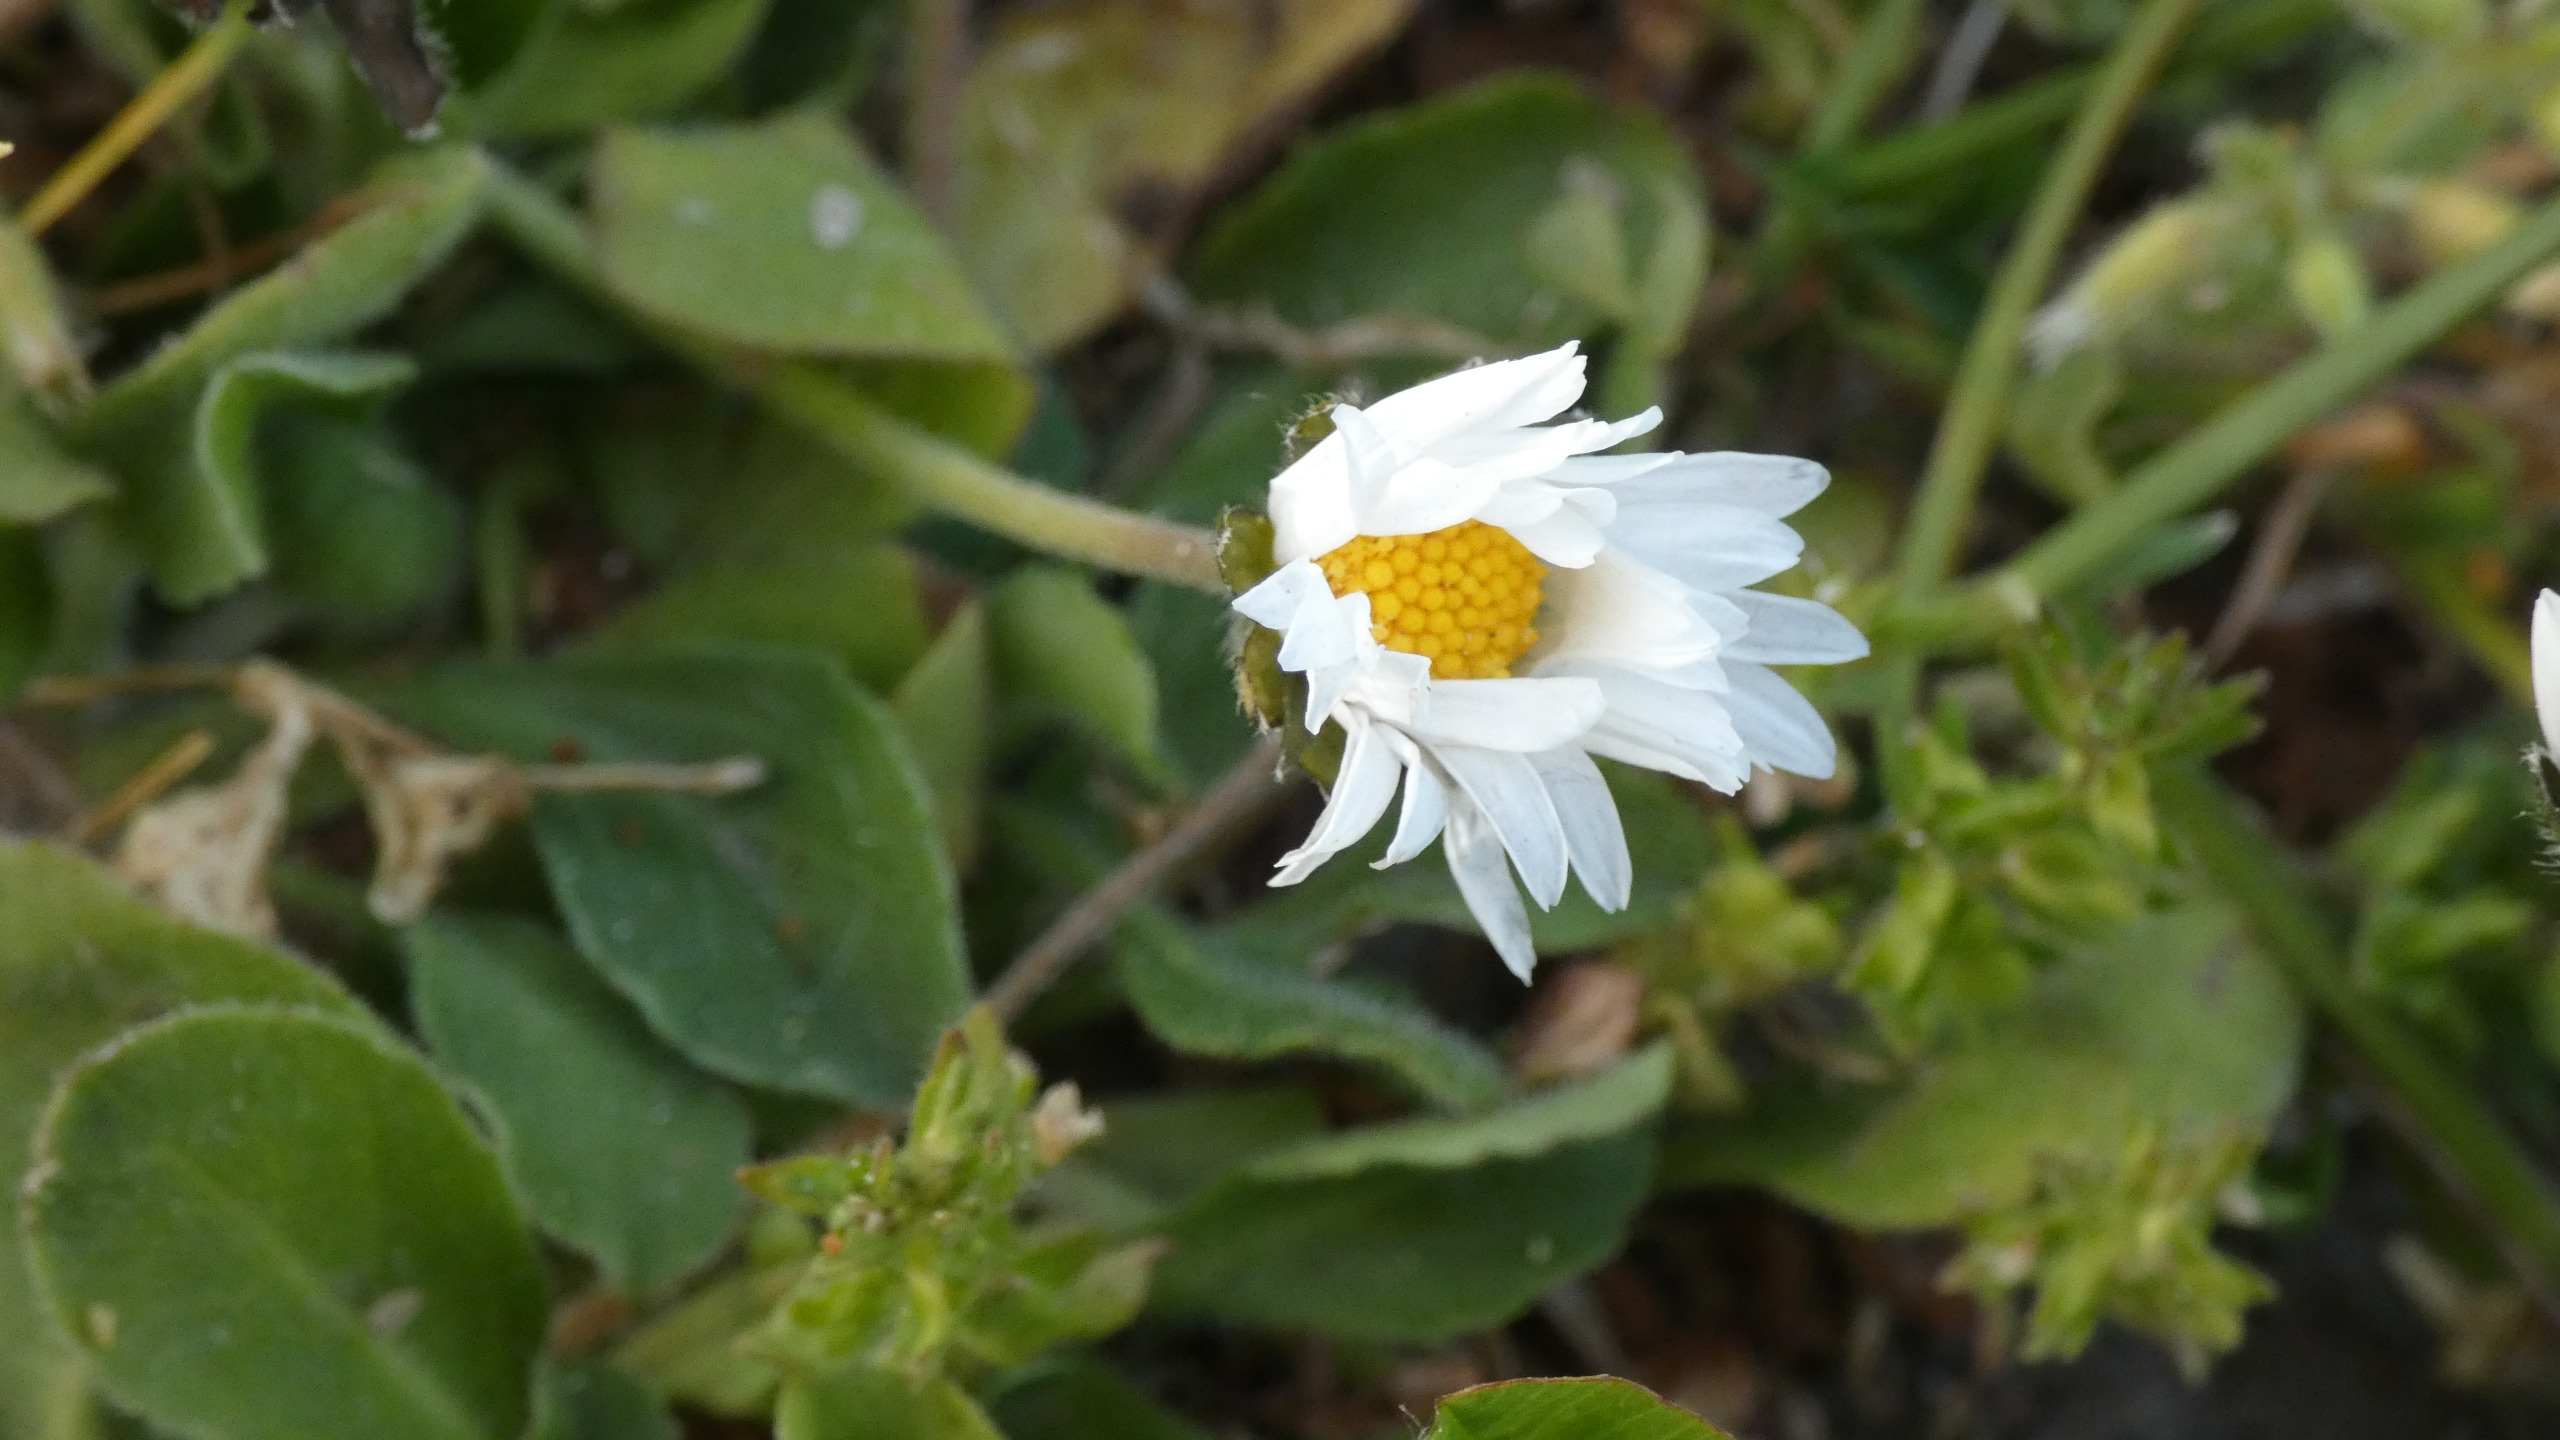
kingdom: Plantae
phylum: Tracheophyta
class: Magnoliopsida
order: Asterales
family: Asteraceae
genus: Bellis
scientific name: Bellis perennis
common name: Tusindfryd
